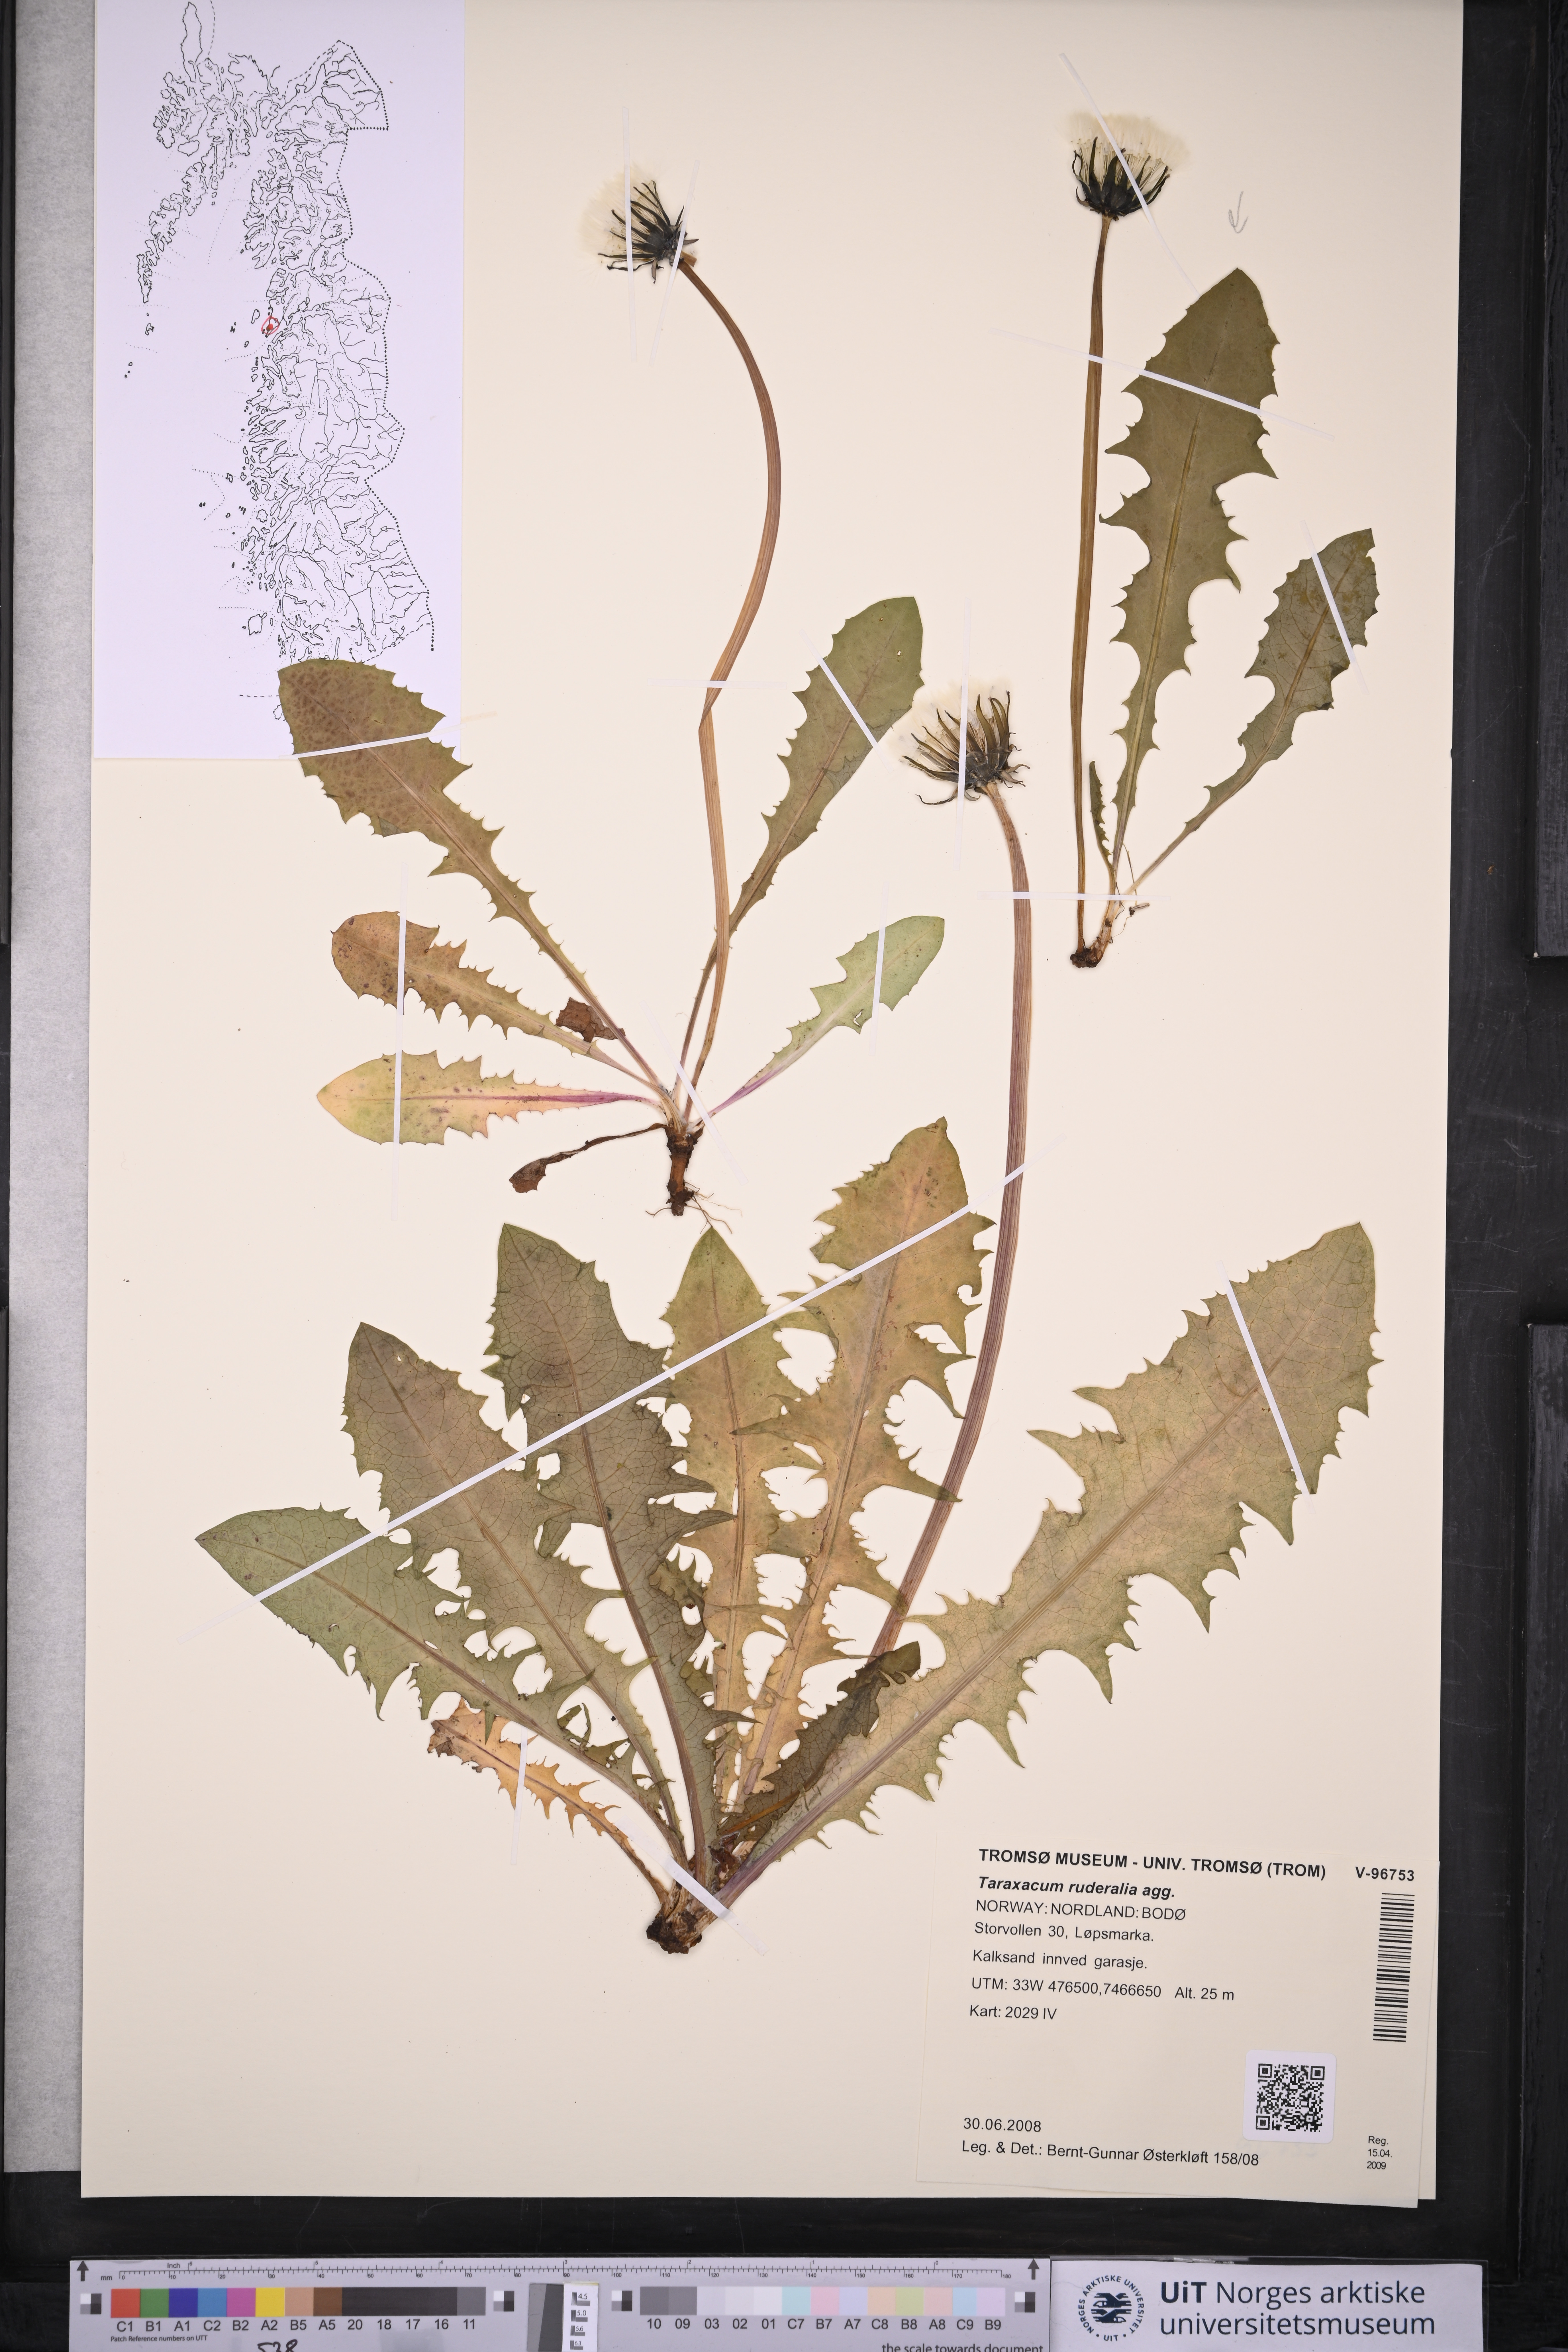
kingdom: Plantae
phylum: Tracheophyta
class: Magnoliopsida
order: Asterales
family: Asteraceae
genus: Taraxacum
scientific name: Taraxacum
